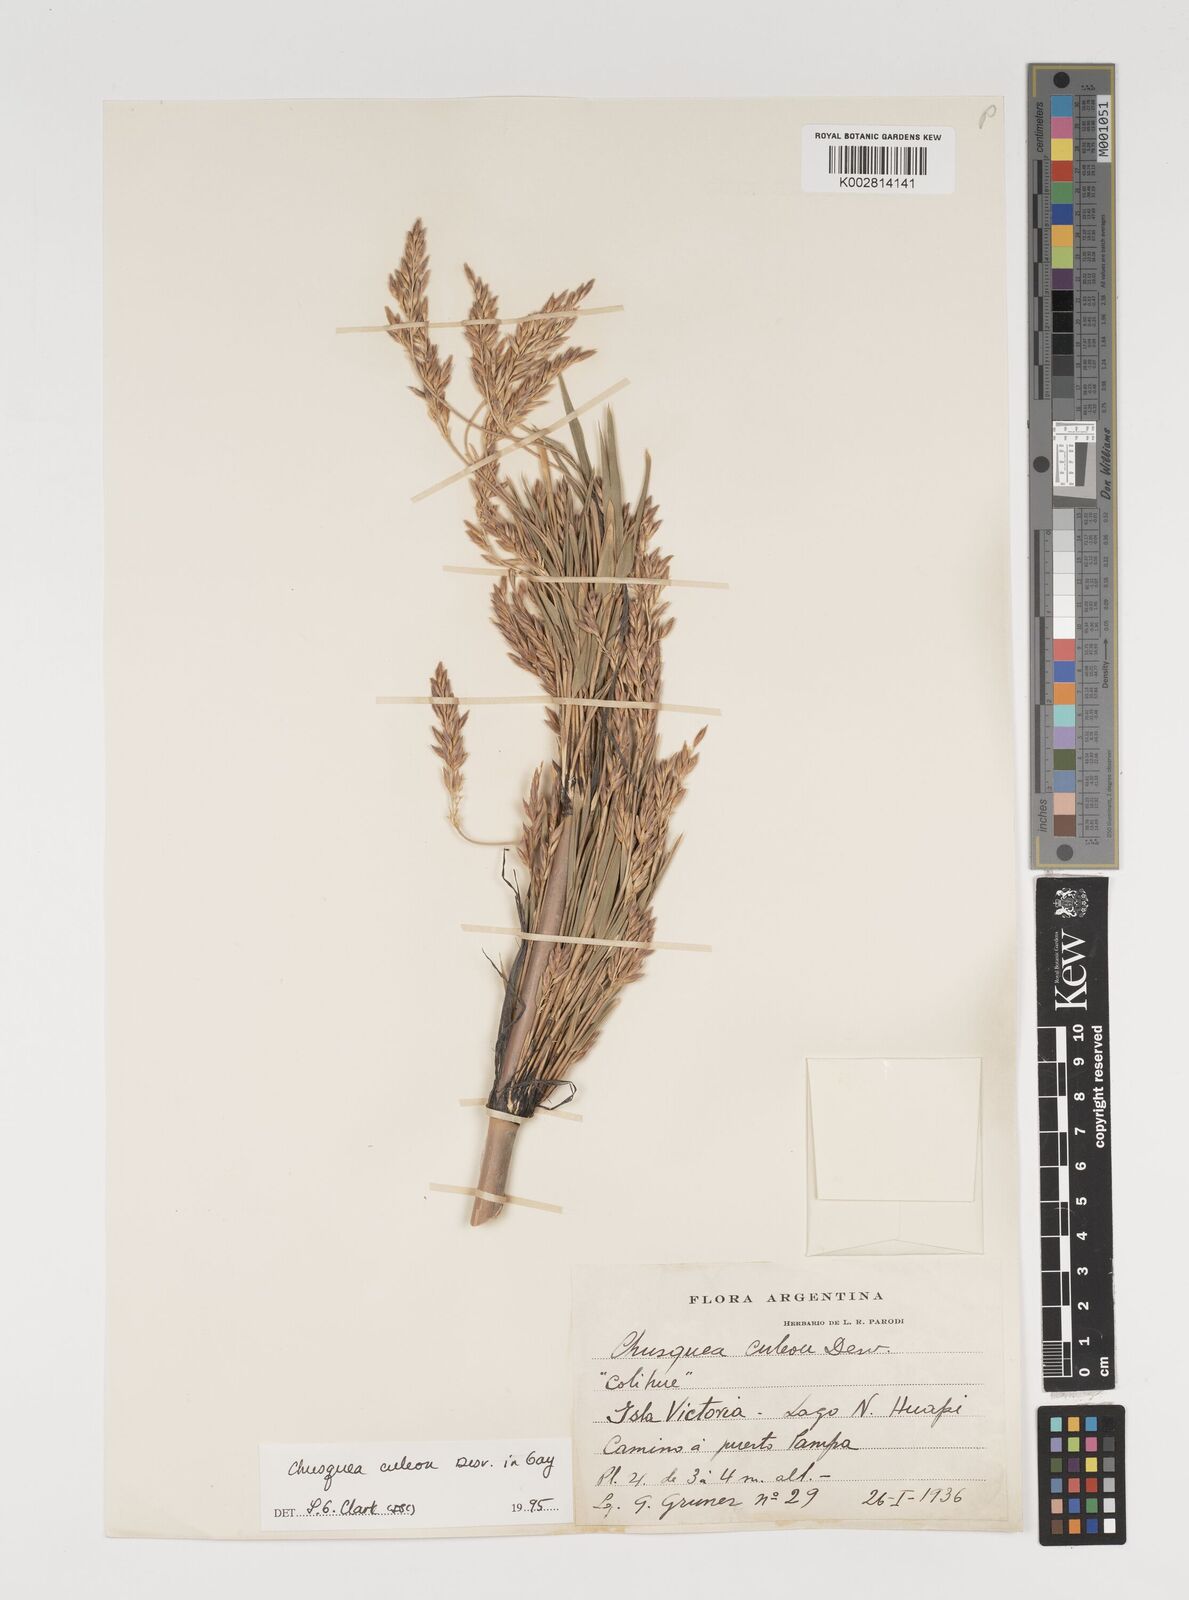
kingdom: Plantae
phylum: Tracheophyta
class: Liliopsida
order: Poales
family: Poaceae
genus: Chusquea
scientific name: Chusquea culeou
